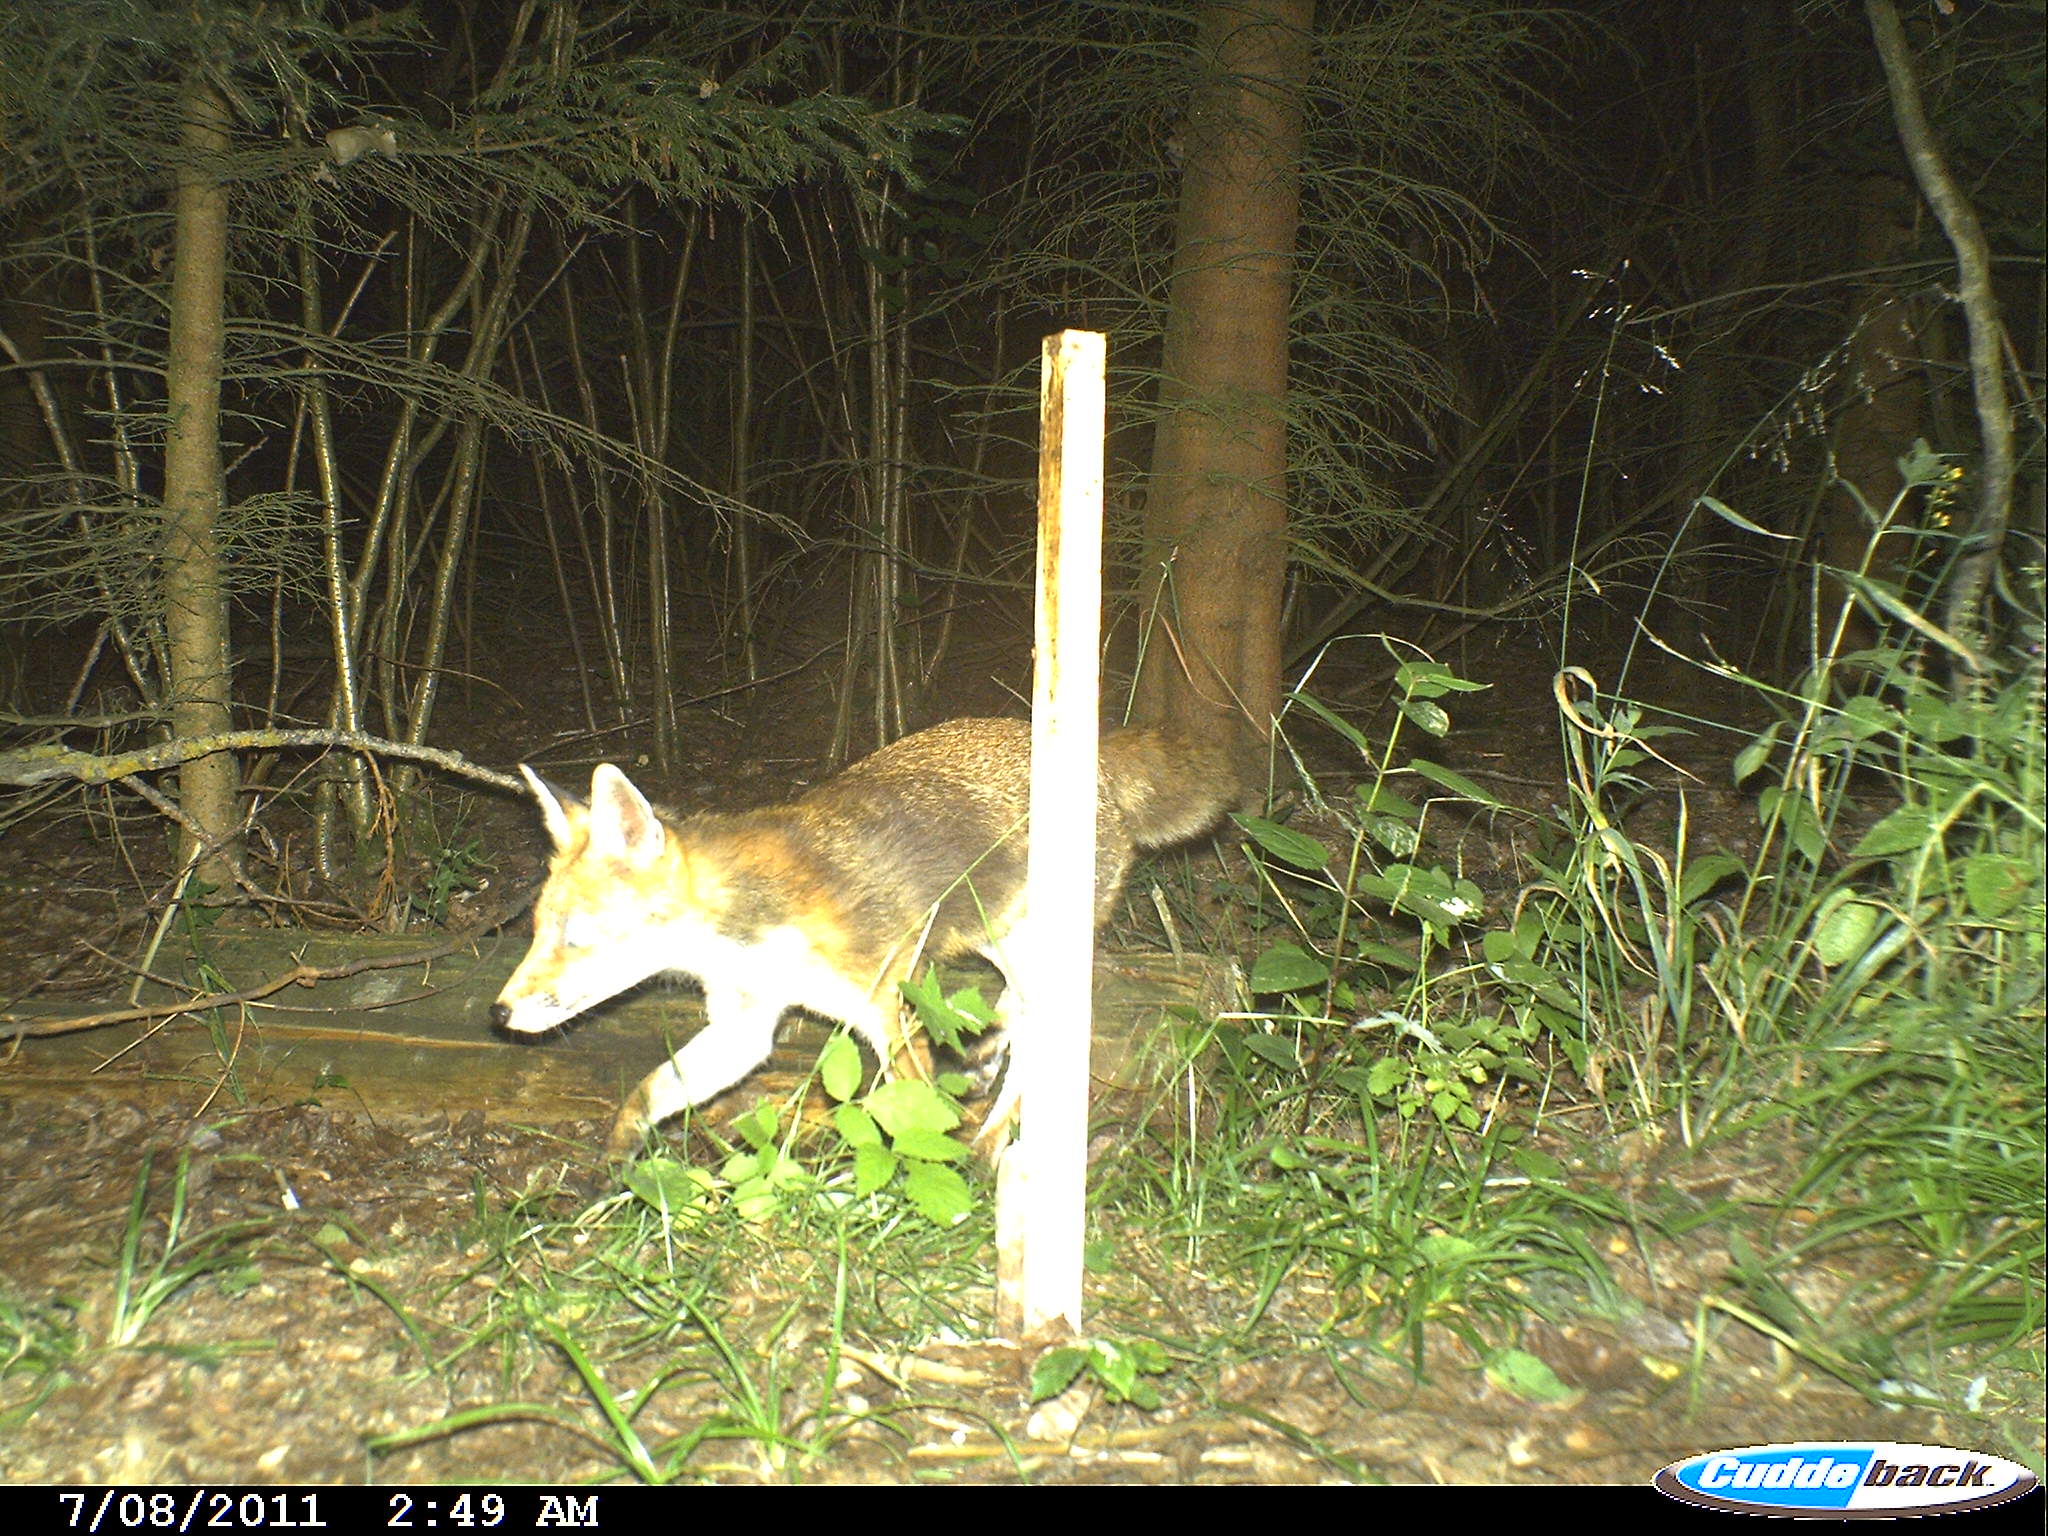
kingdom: Animalia
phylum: Chordata
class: Mammalia
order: Carnivora
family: Canidae
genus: Vulpes
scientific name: Vulpes vulpes
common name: Red fox
